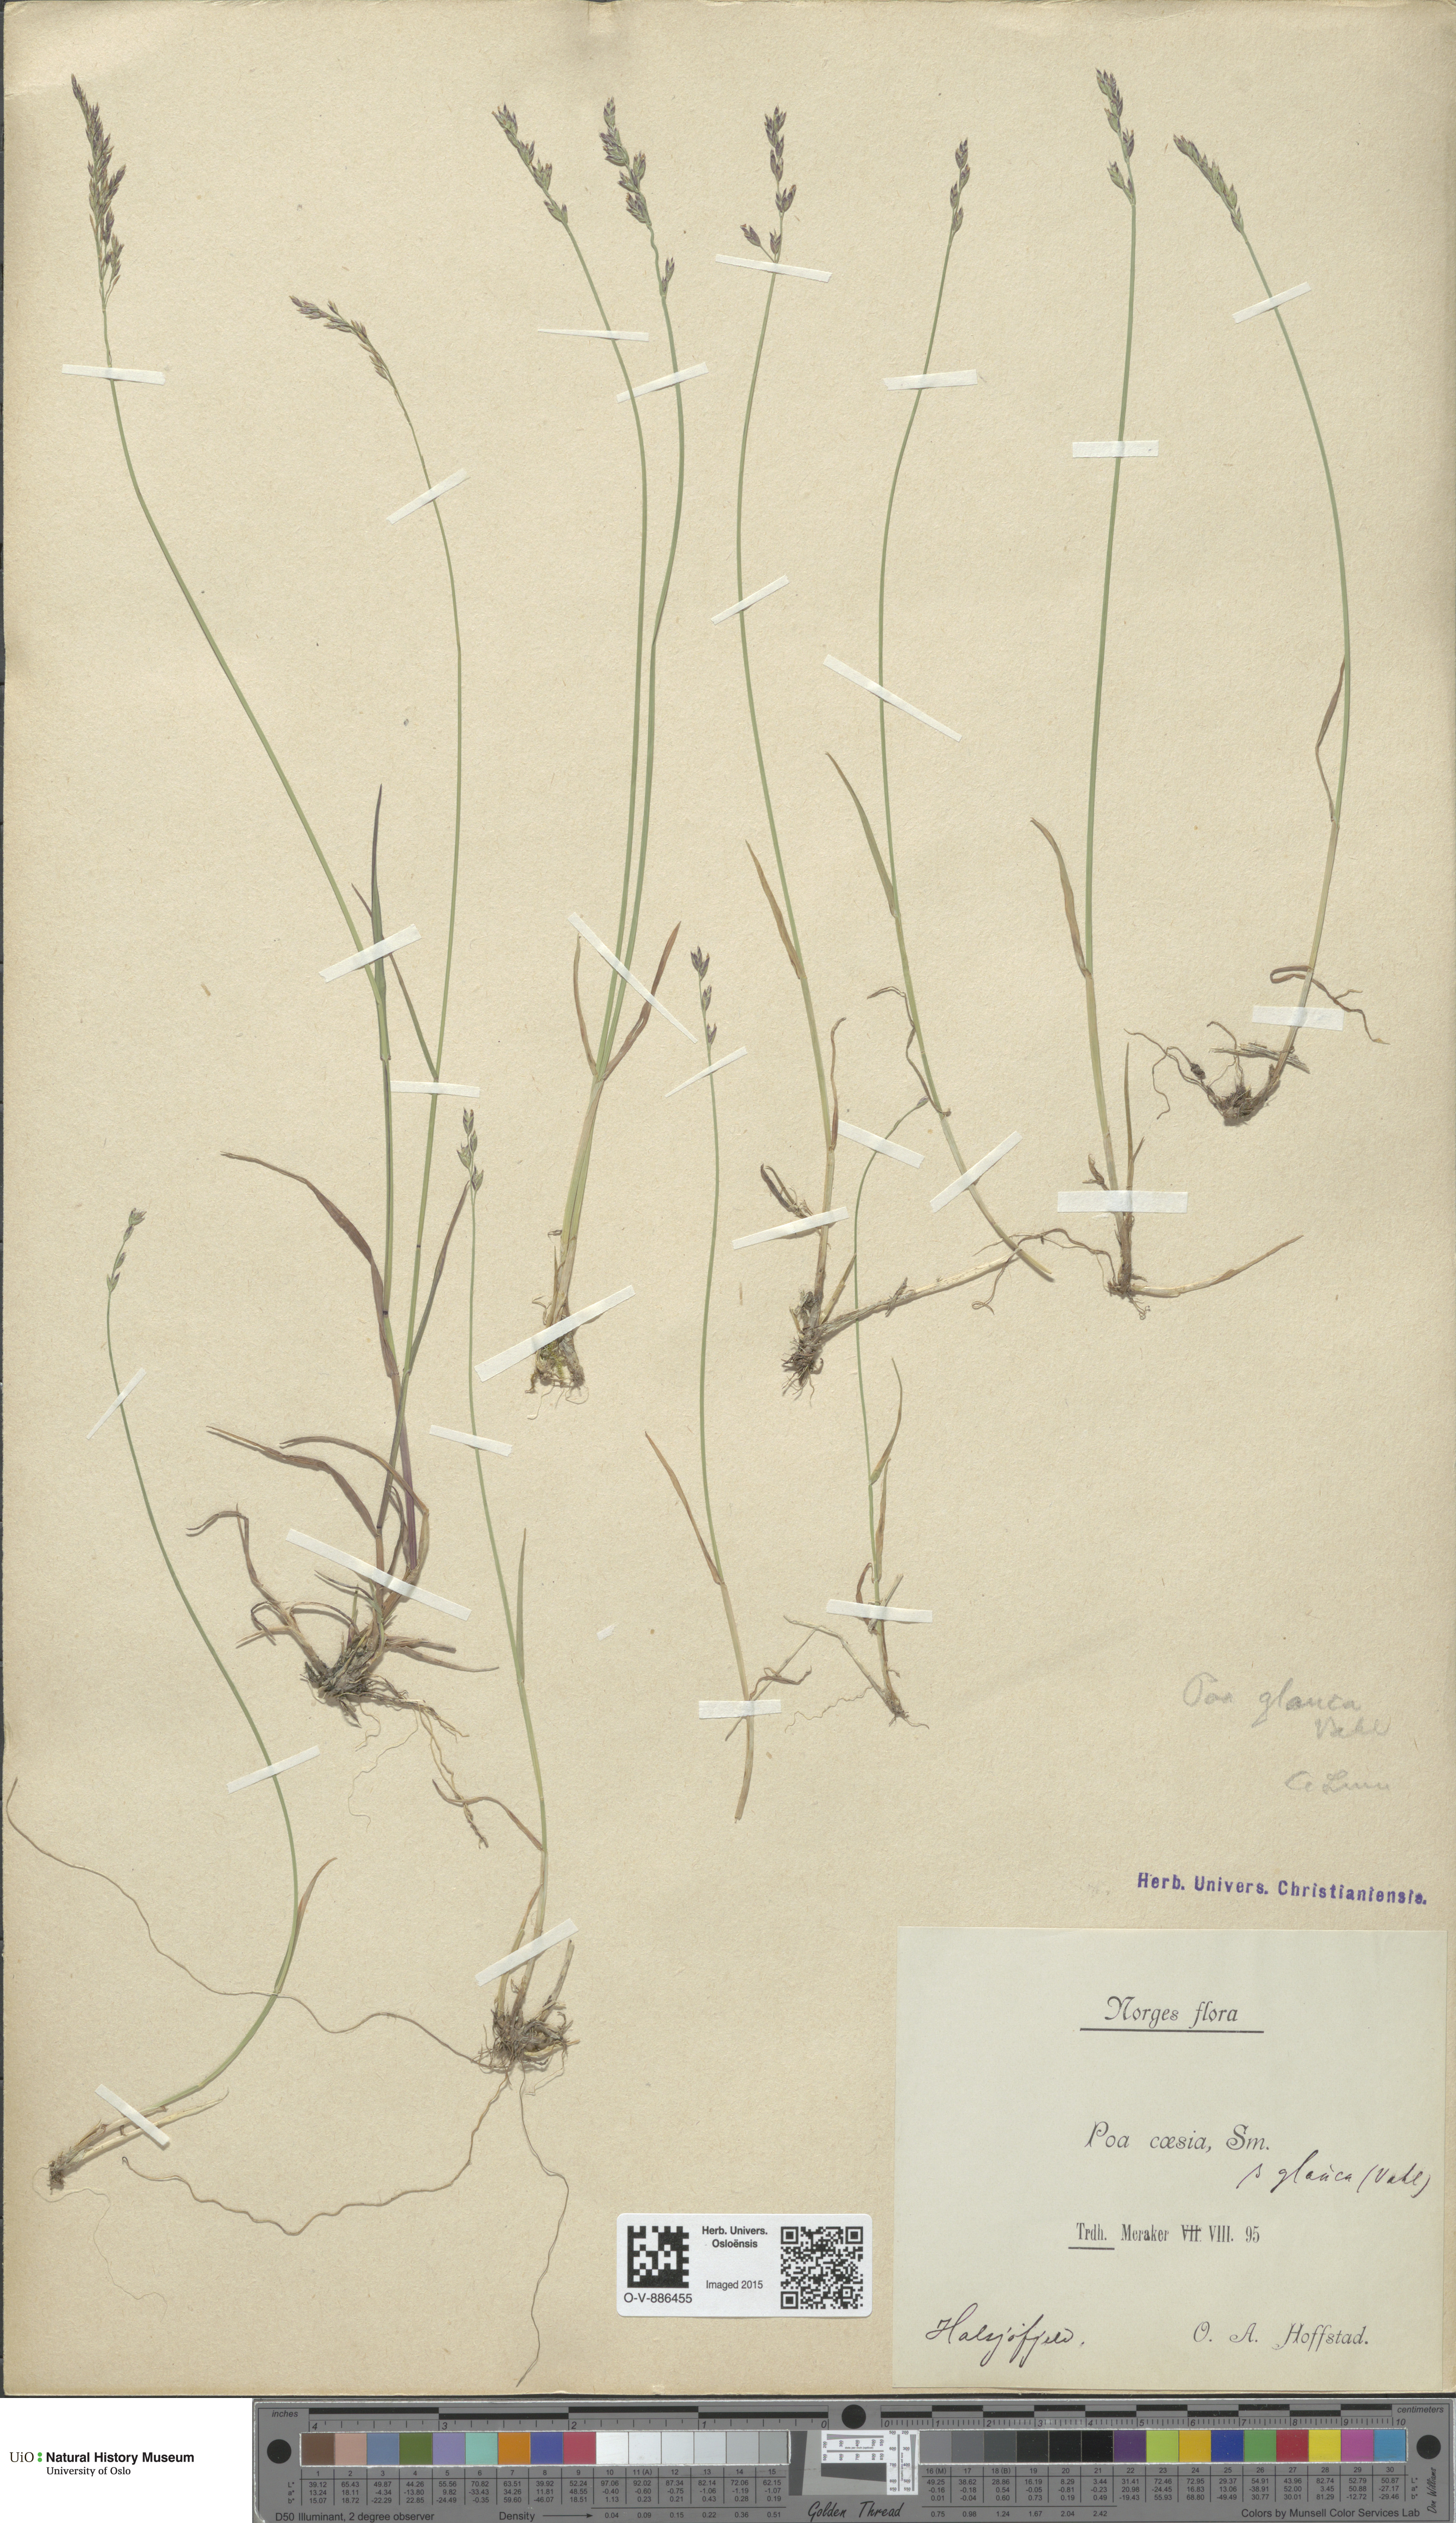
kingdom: Plantae
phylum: Tracheophyta
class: Liliopsida
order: Poales
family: Poaceae
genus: Poa
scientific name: Poa glauca
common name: Glaucous bluegrass
